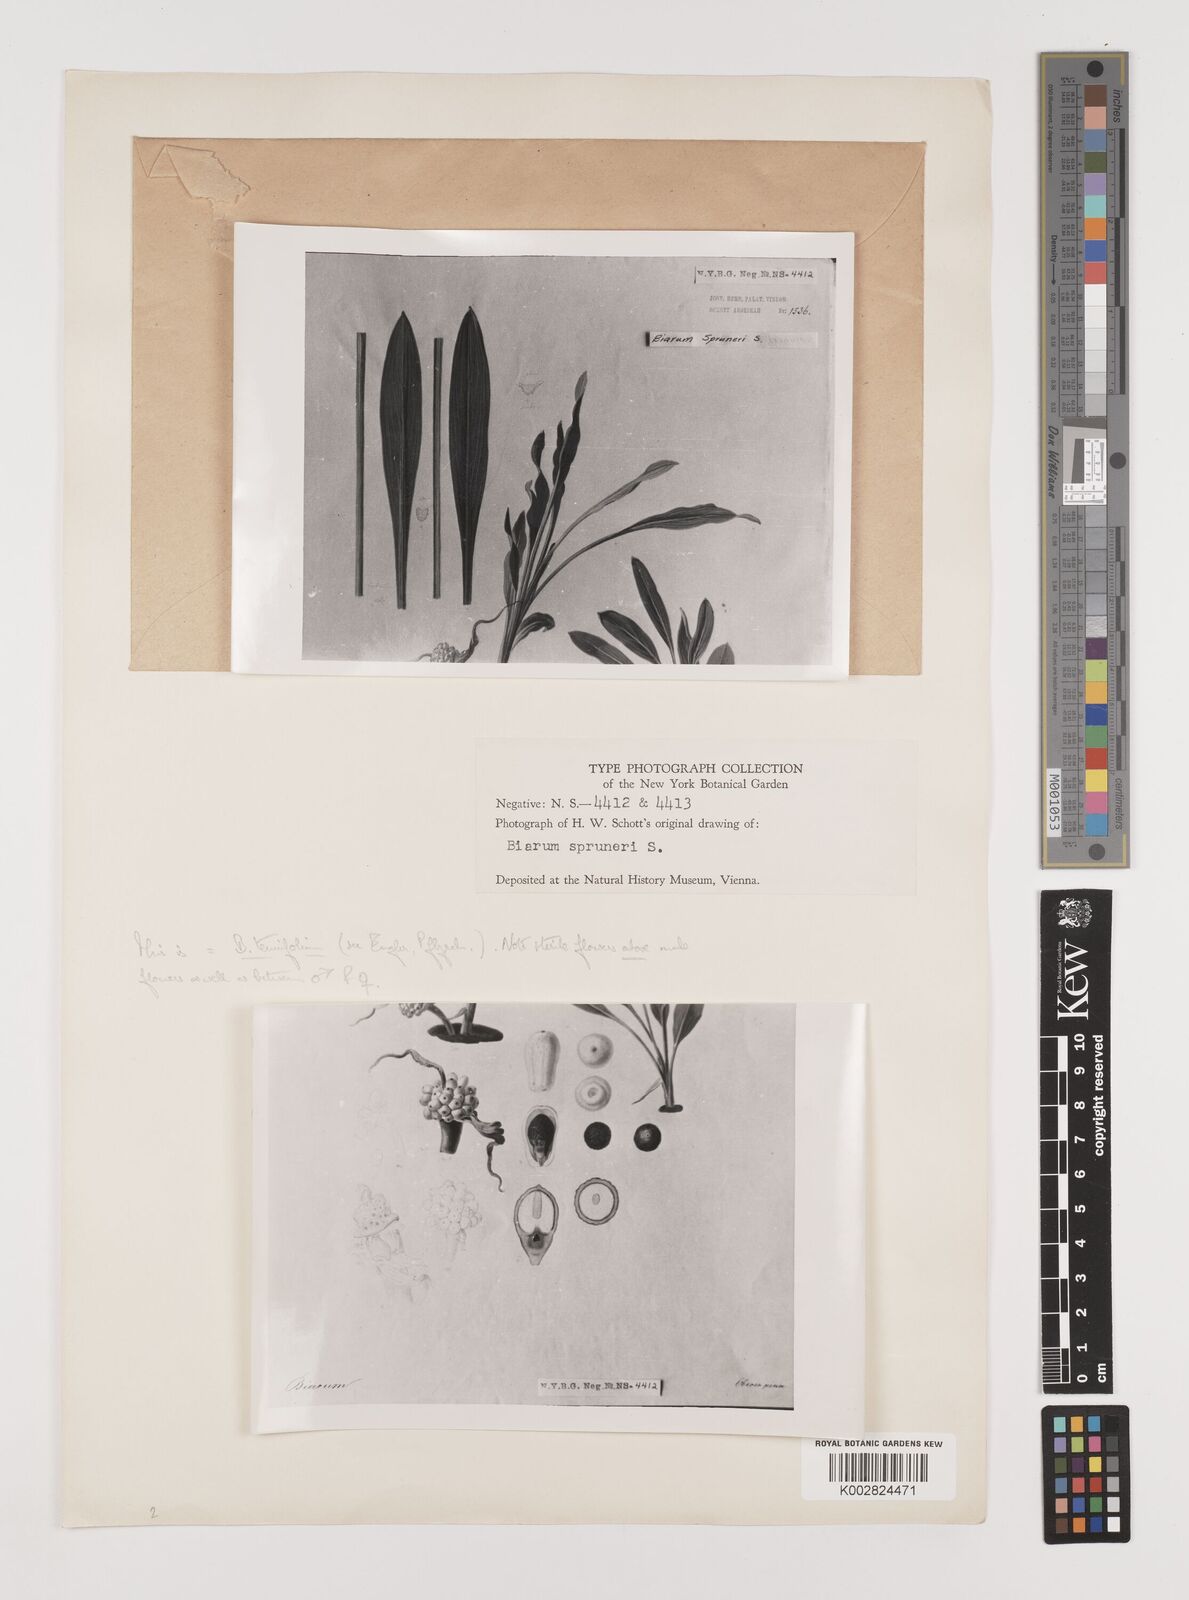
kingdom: Plantae
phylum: Tracheophyta
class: Liliopsida
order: Alismatales
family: Araceae
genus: Biarum
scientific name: Biarum tenuifolium
